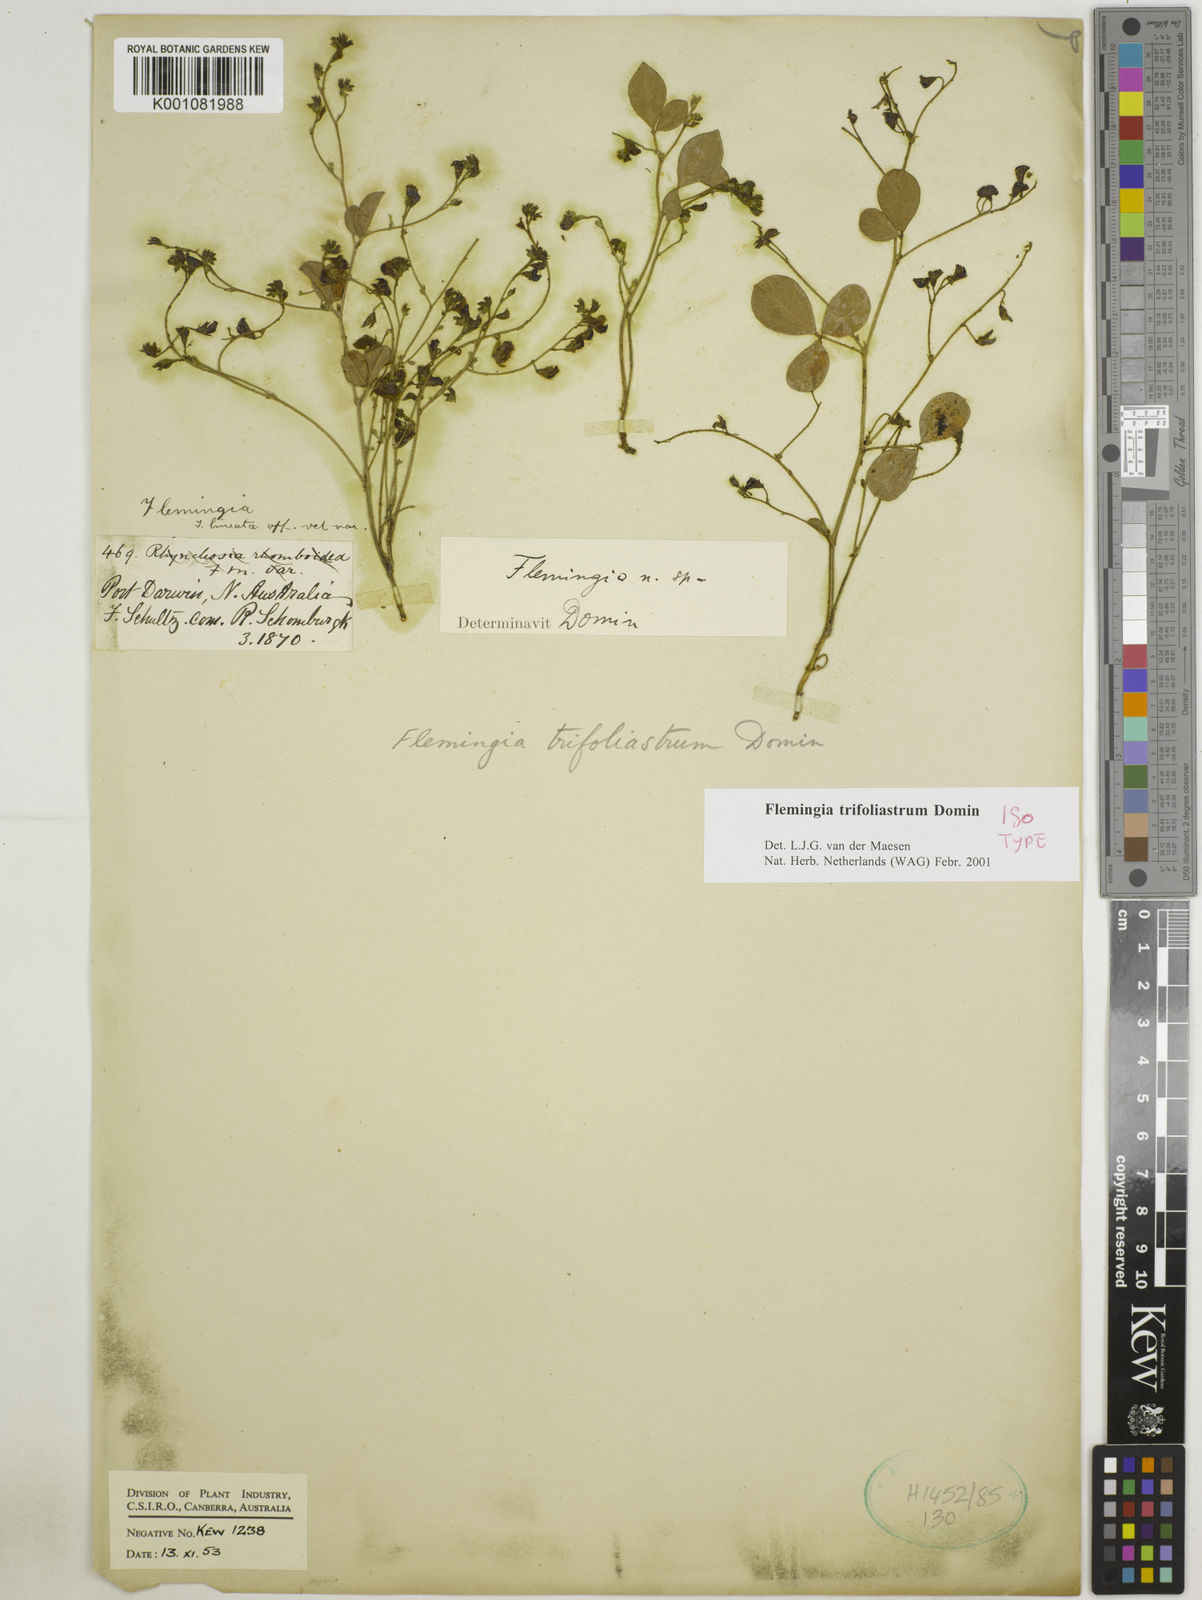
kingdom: Plantae
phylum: Tracheophyta
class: Magnoliopsida
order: Fabales
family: Fabaceae
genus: Flemingia
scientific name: Flemingia trifoliastrum
